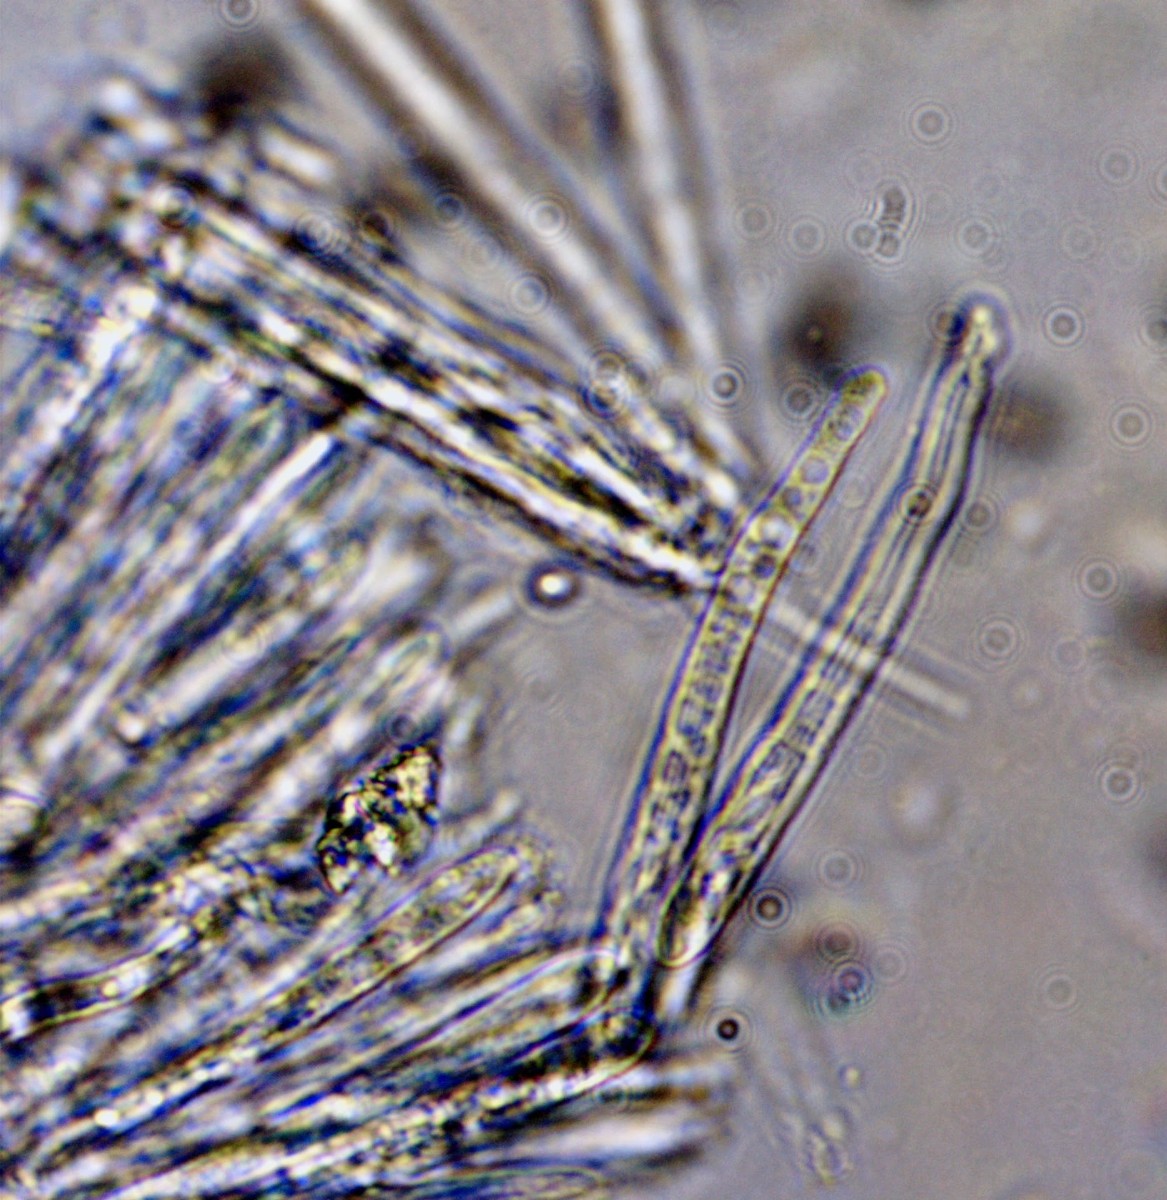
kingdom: Fungi
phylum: Ascomycota
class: Leotiomycetes
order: Helotiales
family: Lachnaceae
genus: Lachnum
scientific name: Lachnum impudicum
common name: vinter-frynseskive
